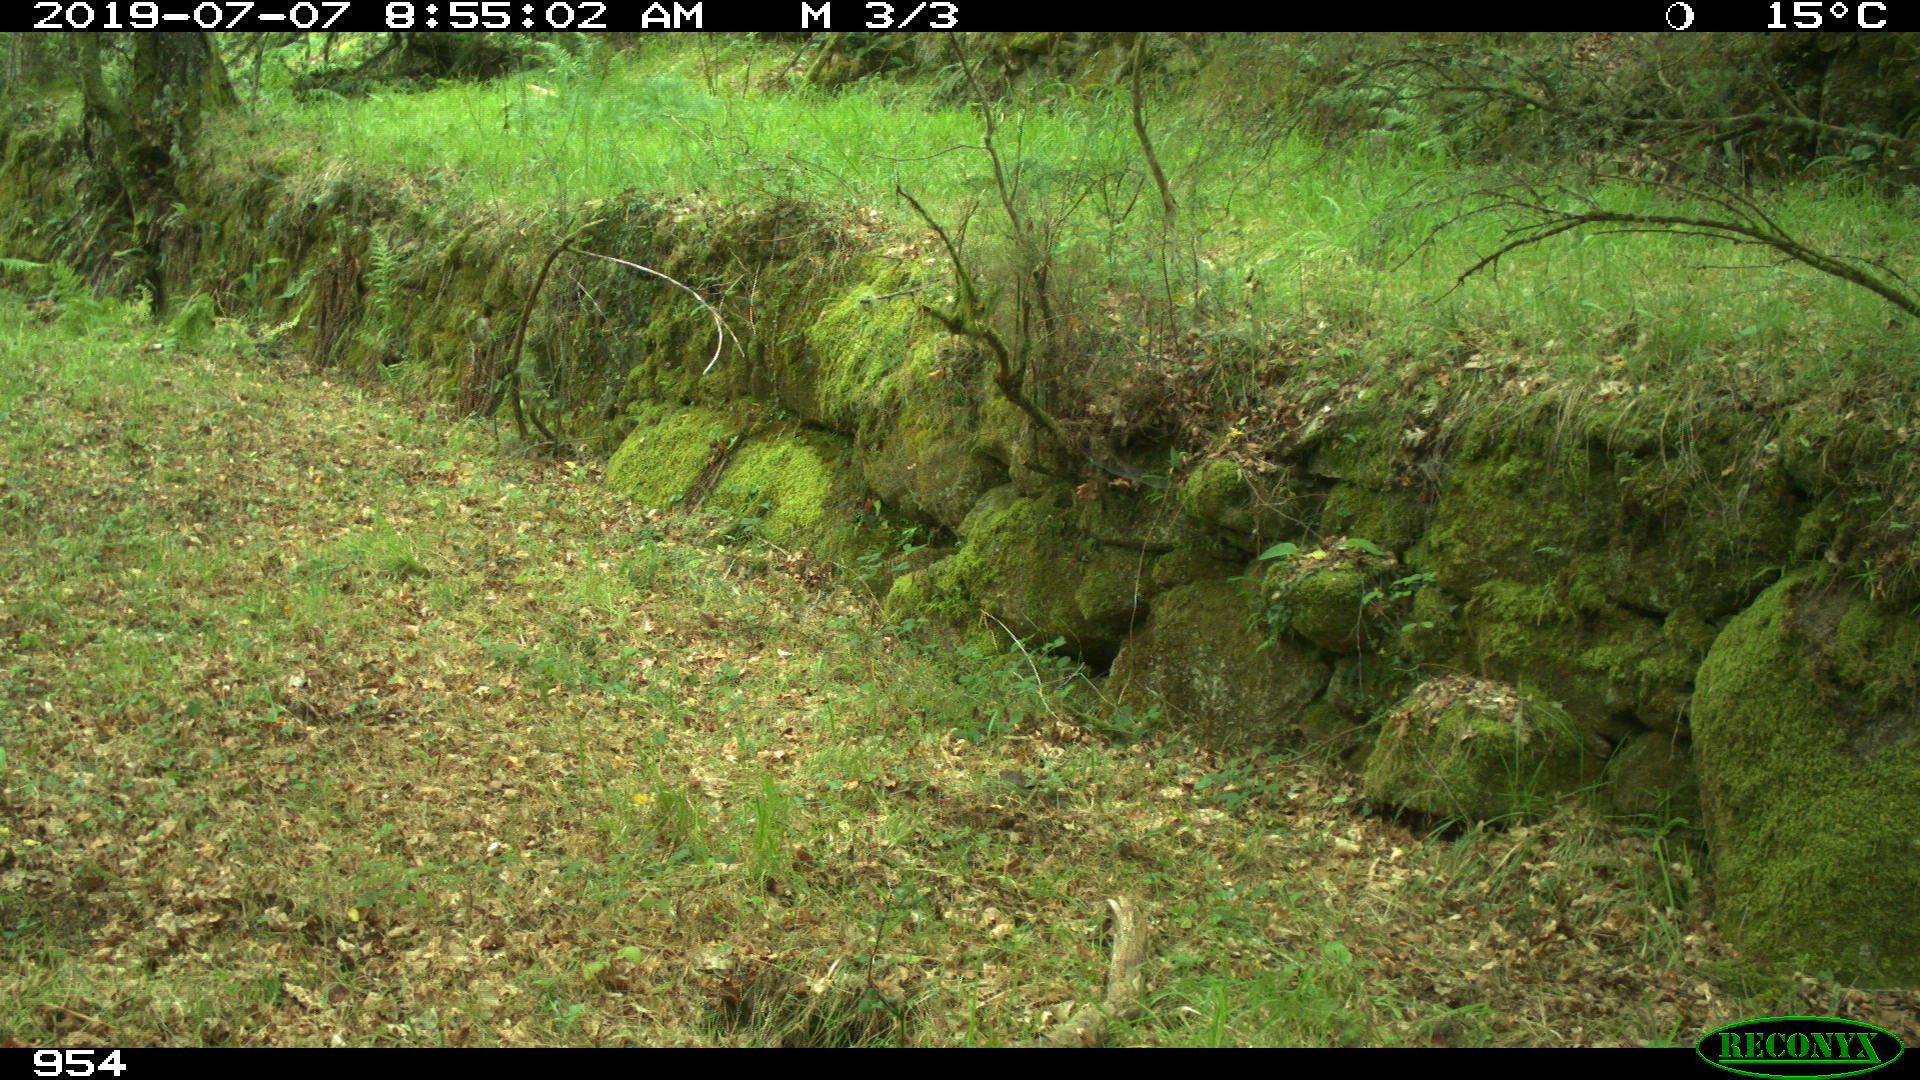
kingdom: Animalia
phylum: Chordata
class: Mammalia
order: Artiodactyla
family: Cervidae
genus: Capreolus
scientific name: Capreolus capreolus
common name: Western roe deer
